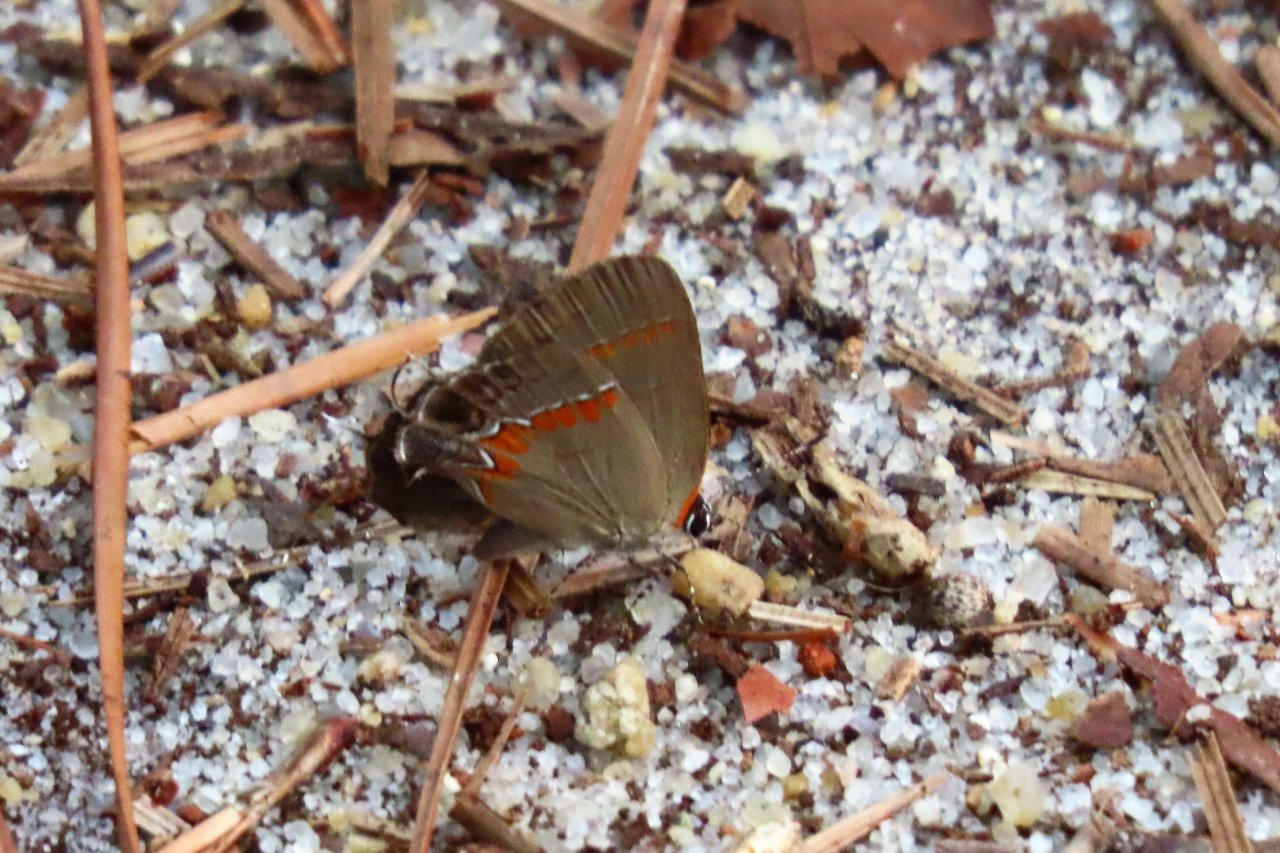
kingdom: Animalia
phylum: Arthropoda
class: Insecta
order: Lepidoptera
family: Lycaenidae
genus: Calycopis
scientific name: Calycopis cecrops
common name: Red-banded Hairstreak
